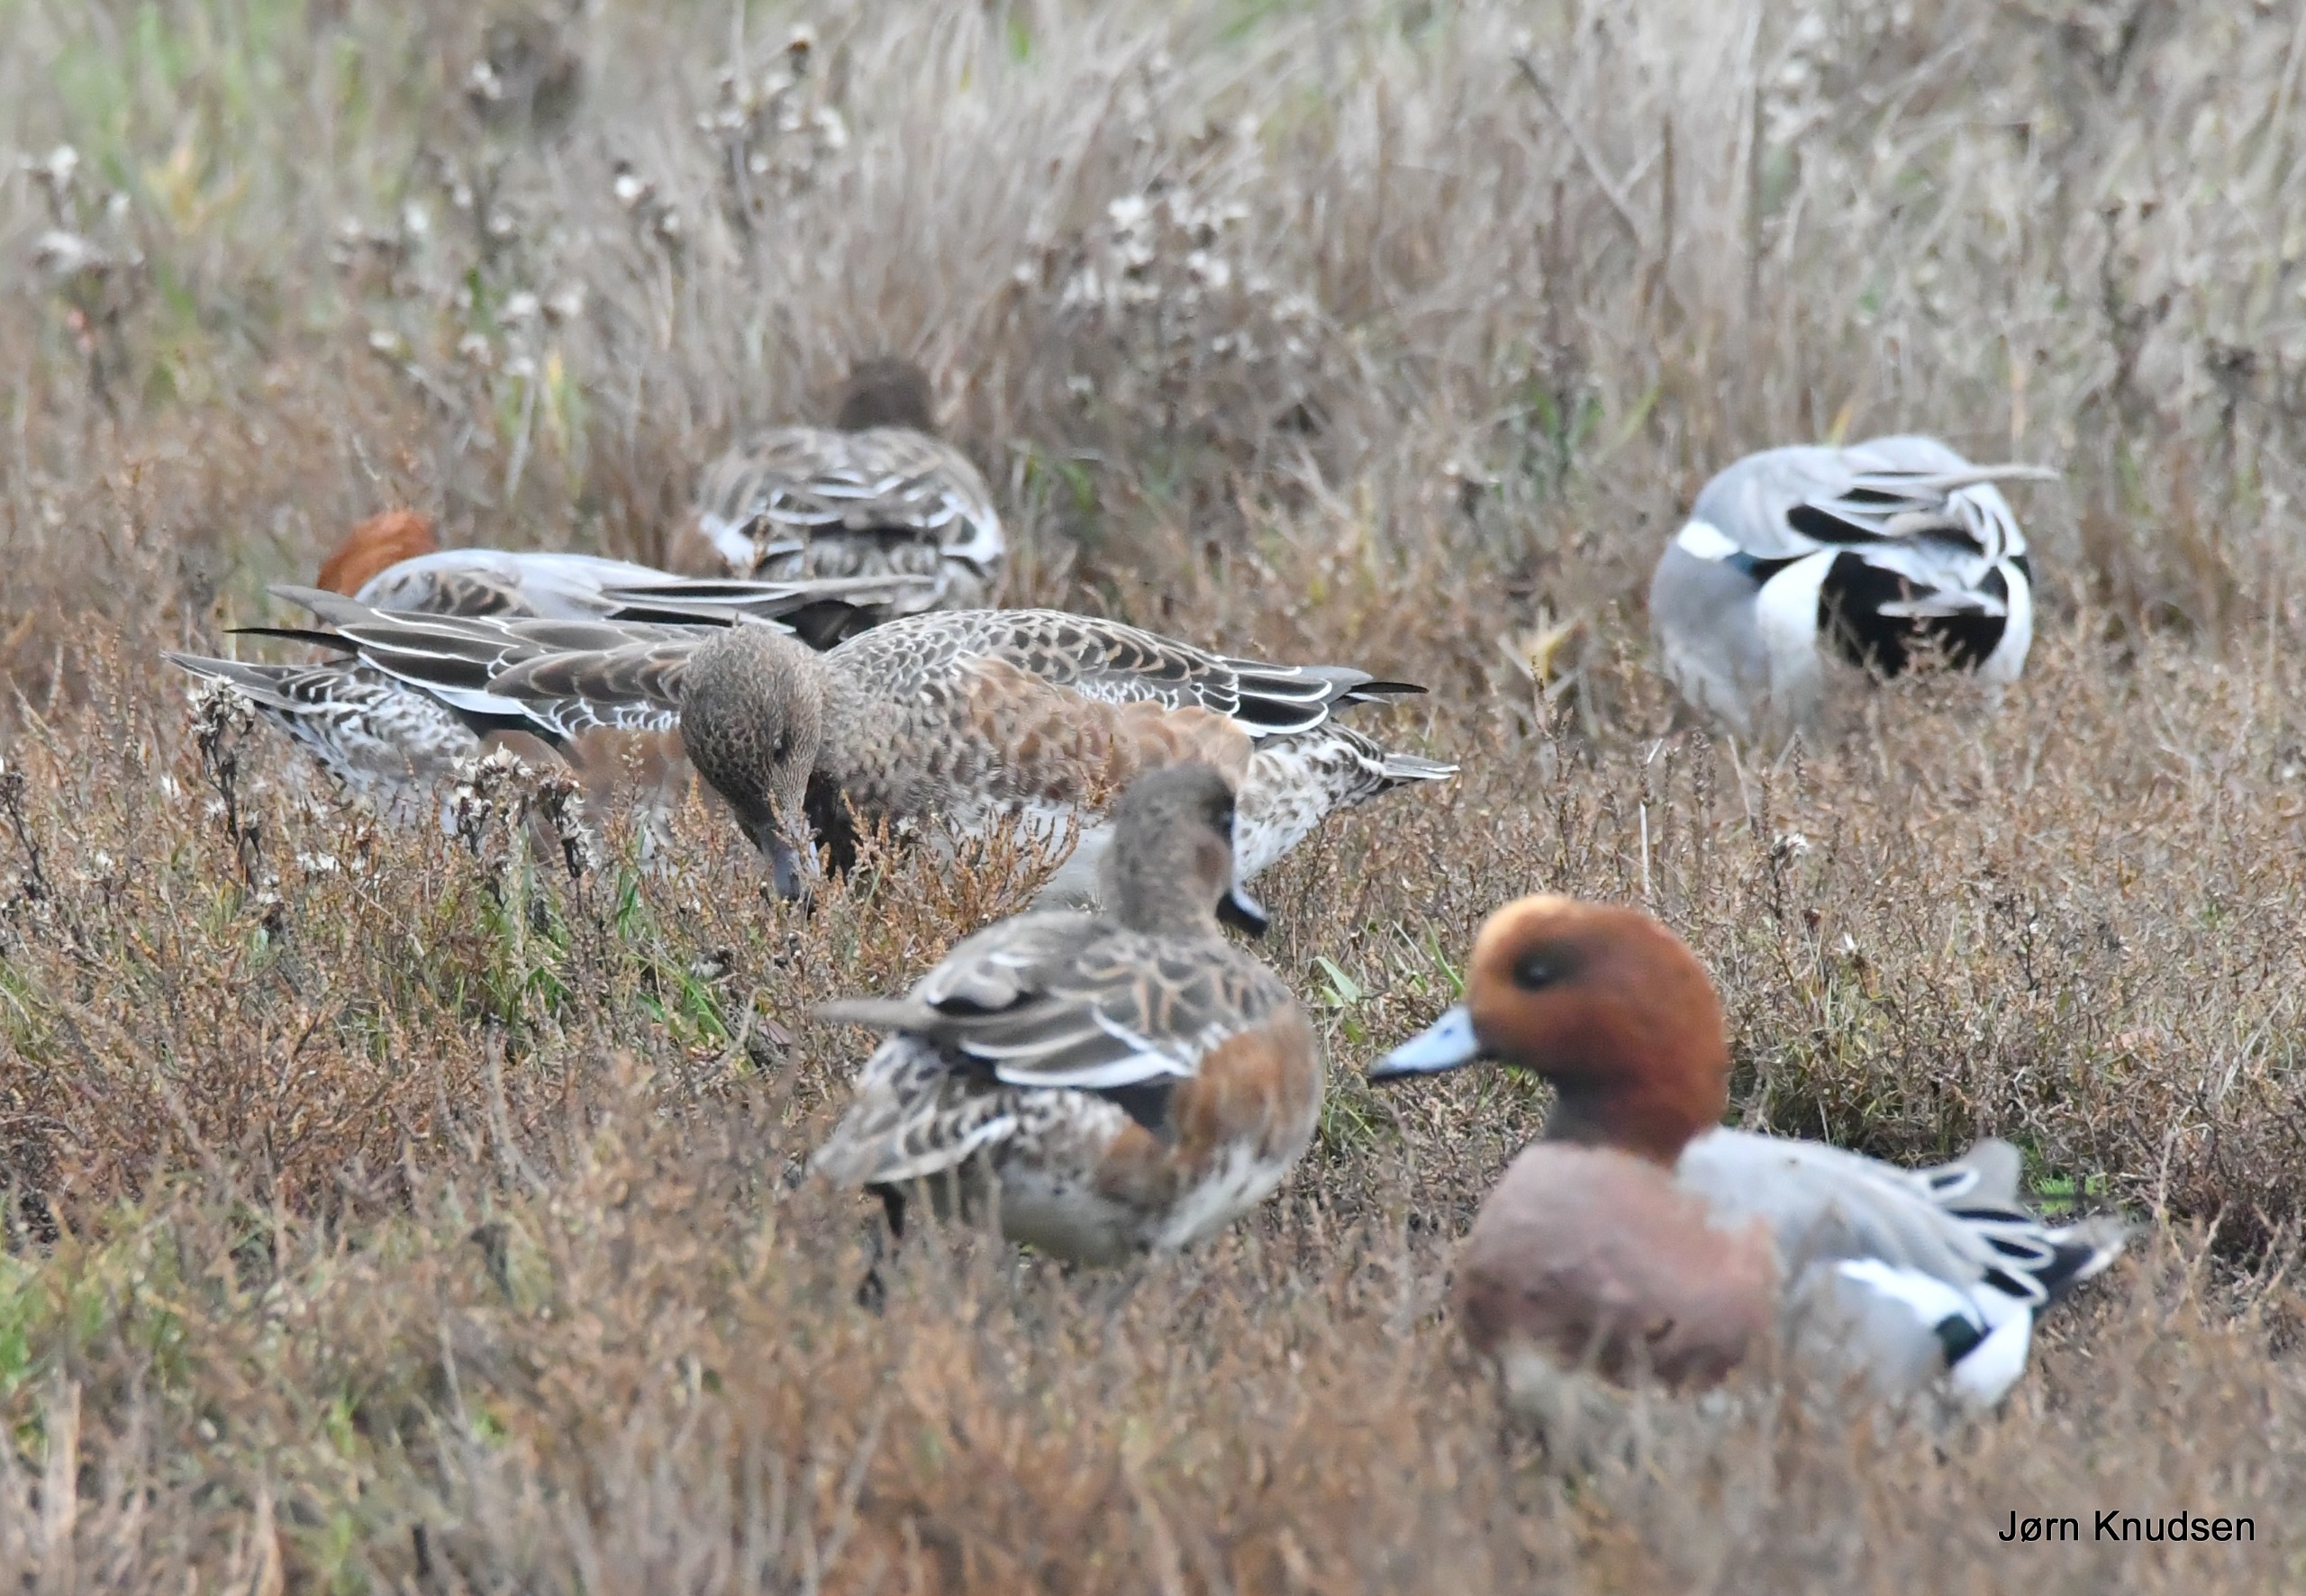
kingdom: Animalia
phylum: Chordata
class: Aves
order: Anseriformes
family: Anatidae
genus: Mareca
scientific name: Mareca penelope
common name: Pibeand
